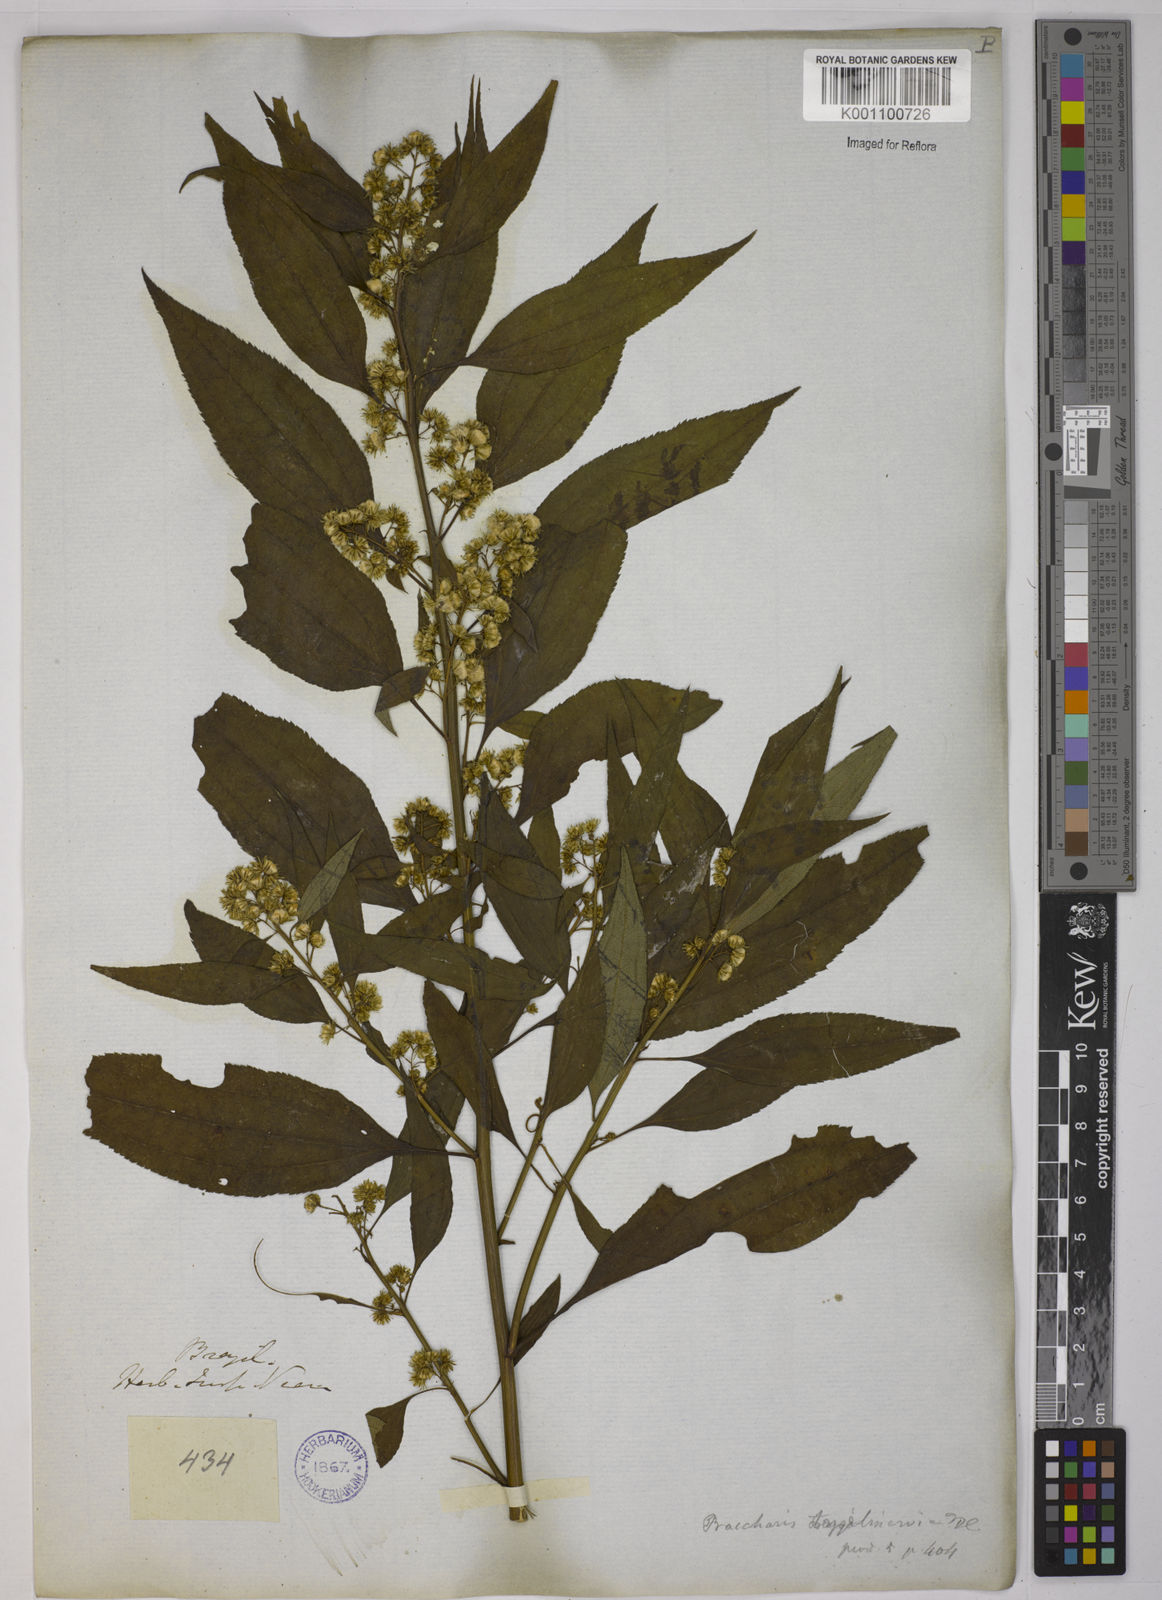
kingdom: Plantae
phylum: Tracheophyta
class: Magnoliopsida
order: Asterales
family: Asteraceae
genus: Baccharis
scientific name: Baccharis oxyodonta
